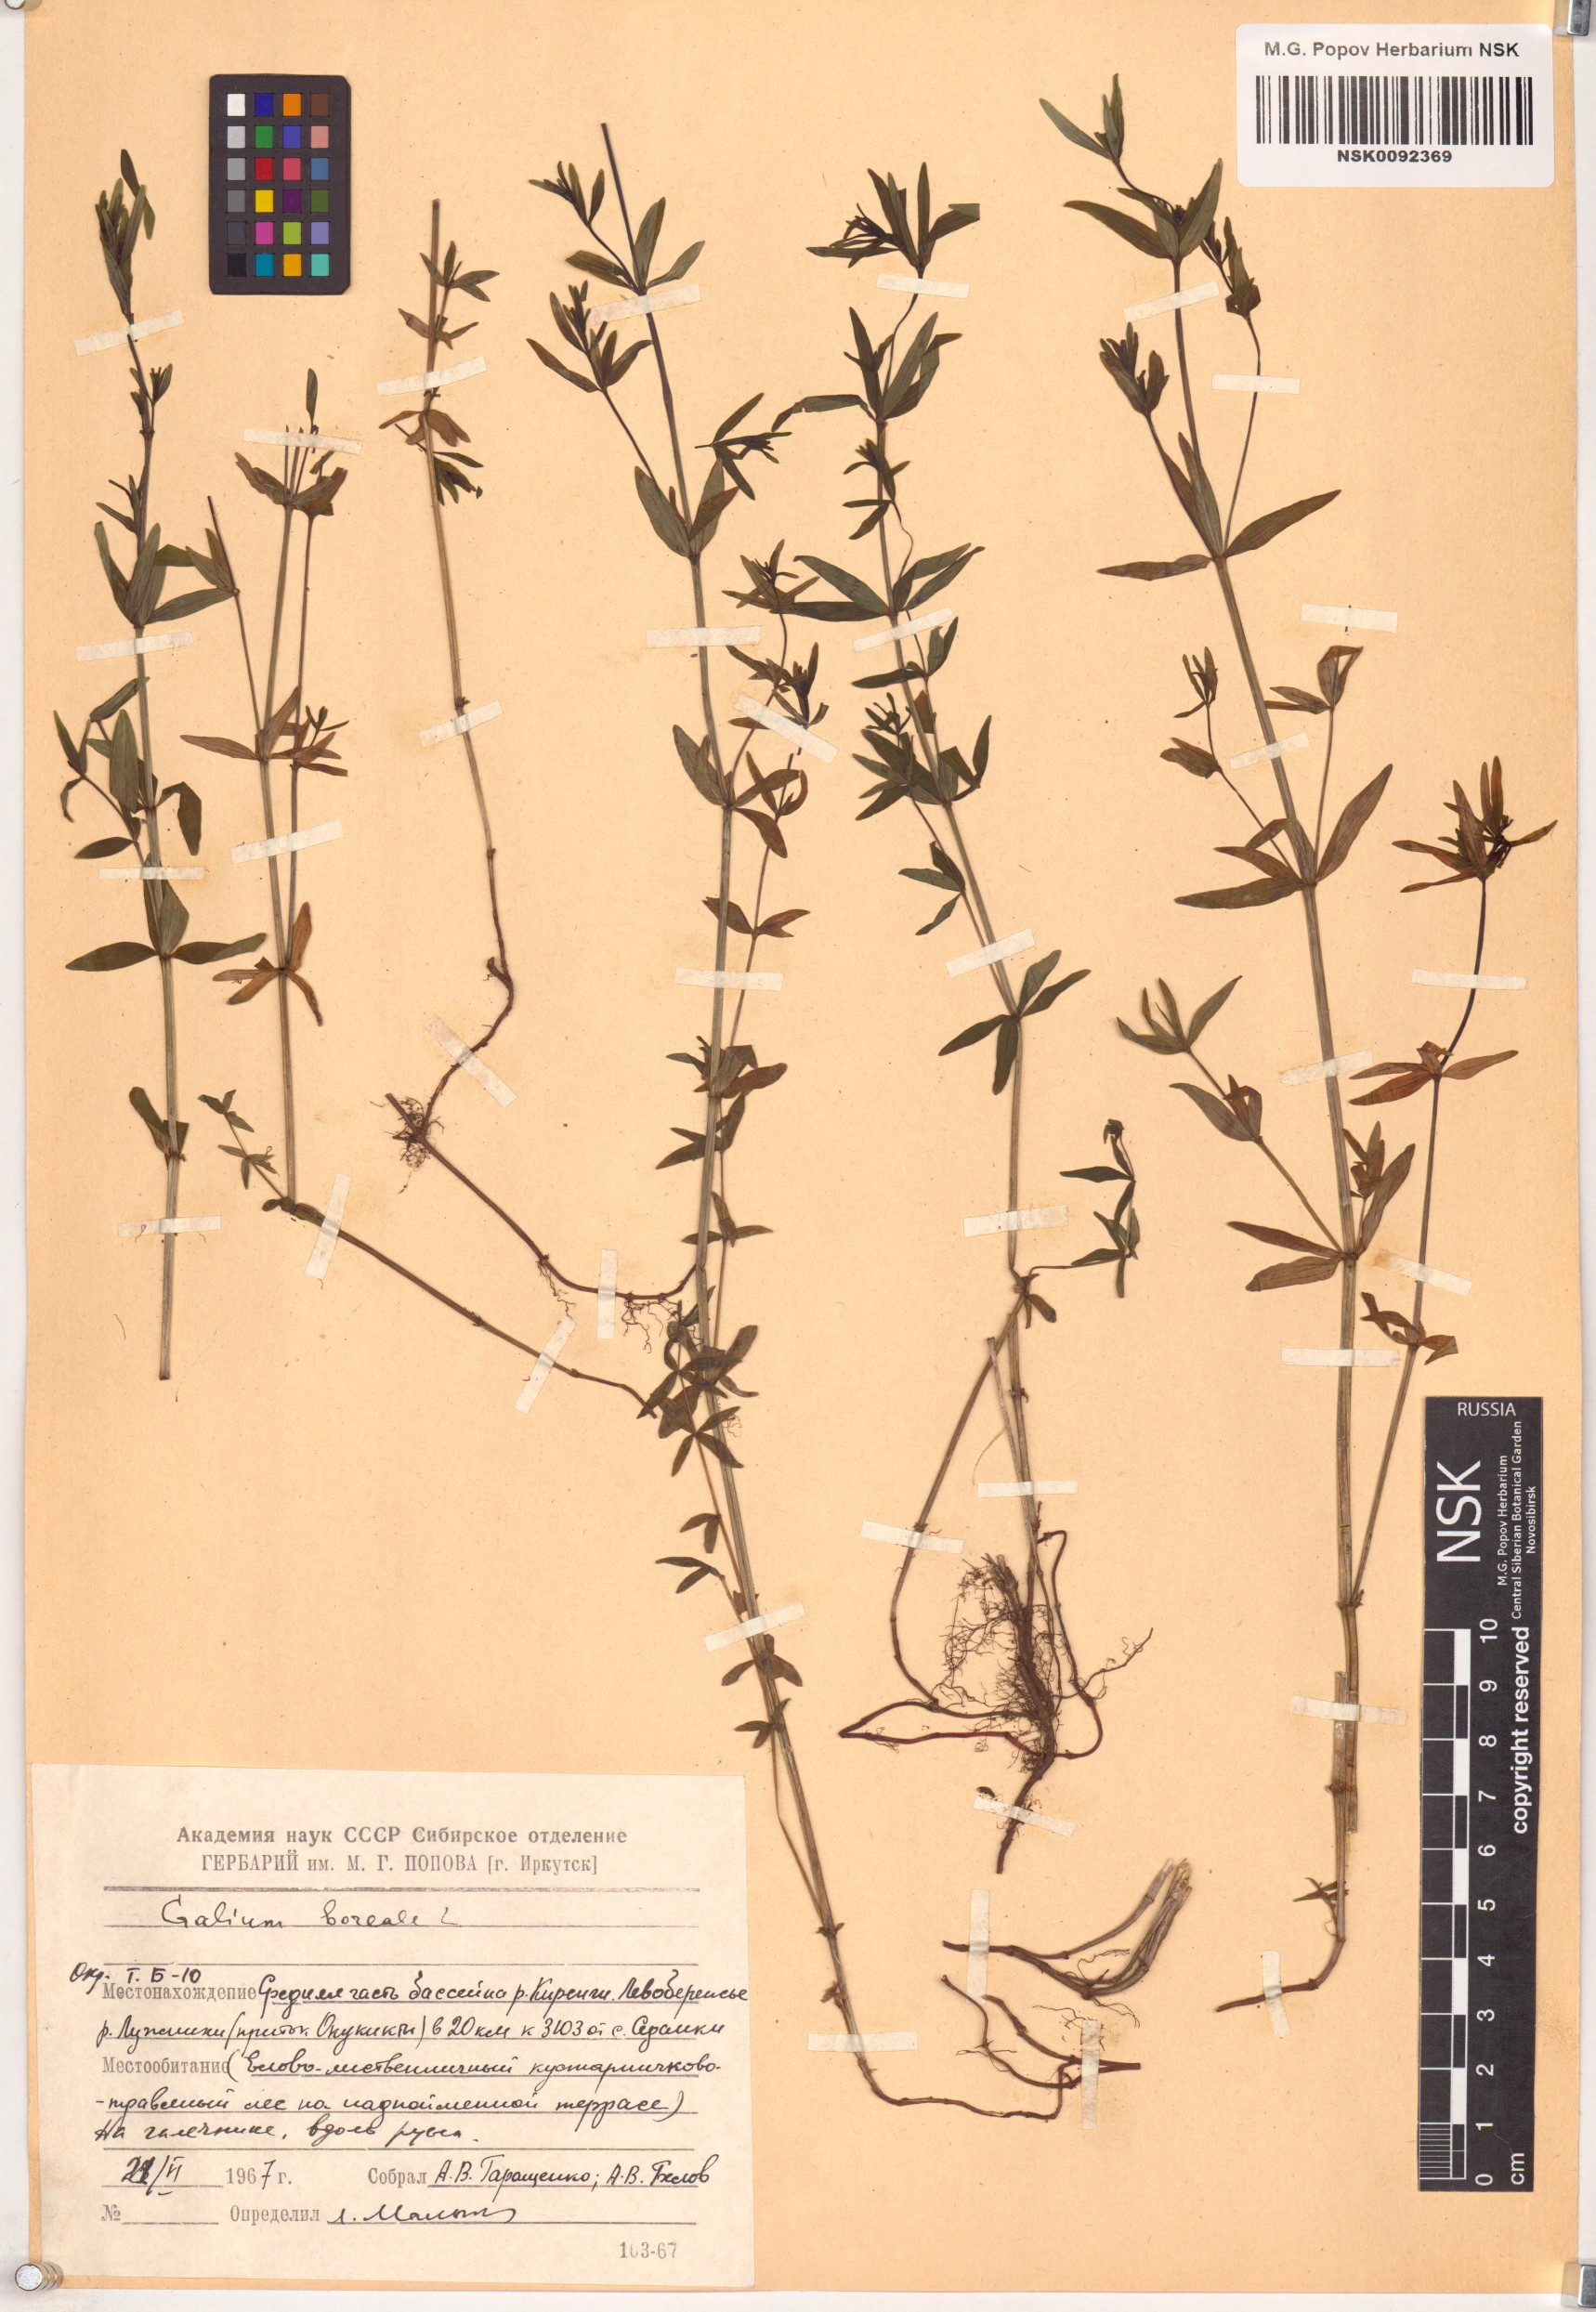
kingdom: Plantae
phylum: Tracheophyta
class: Magnoliopsida
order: Gentianales
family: Rubiaceae
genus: Galium
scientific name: Galium boreale
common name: Northern bedstraw
